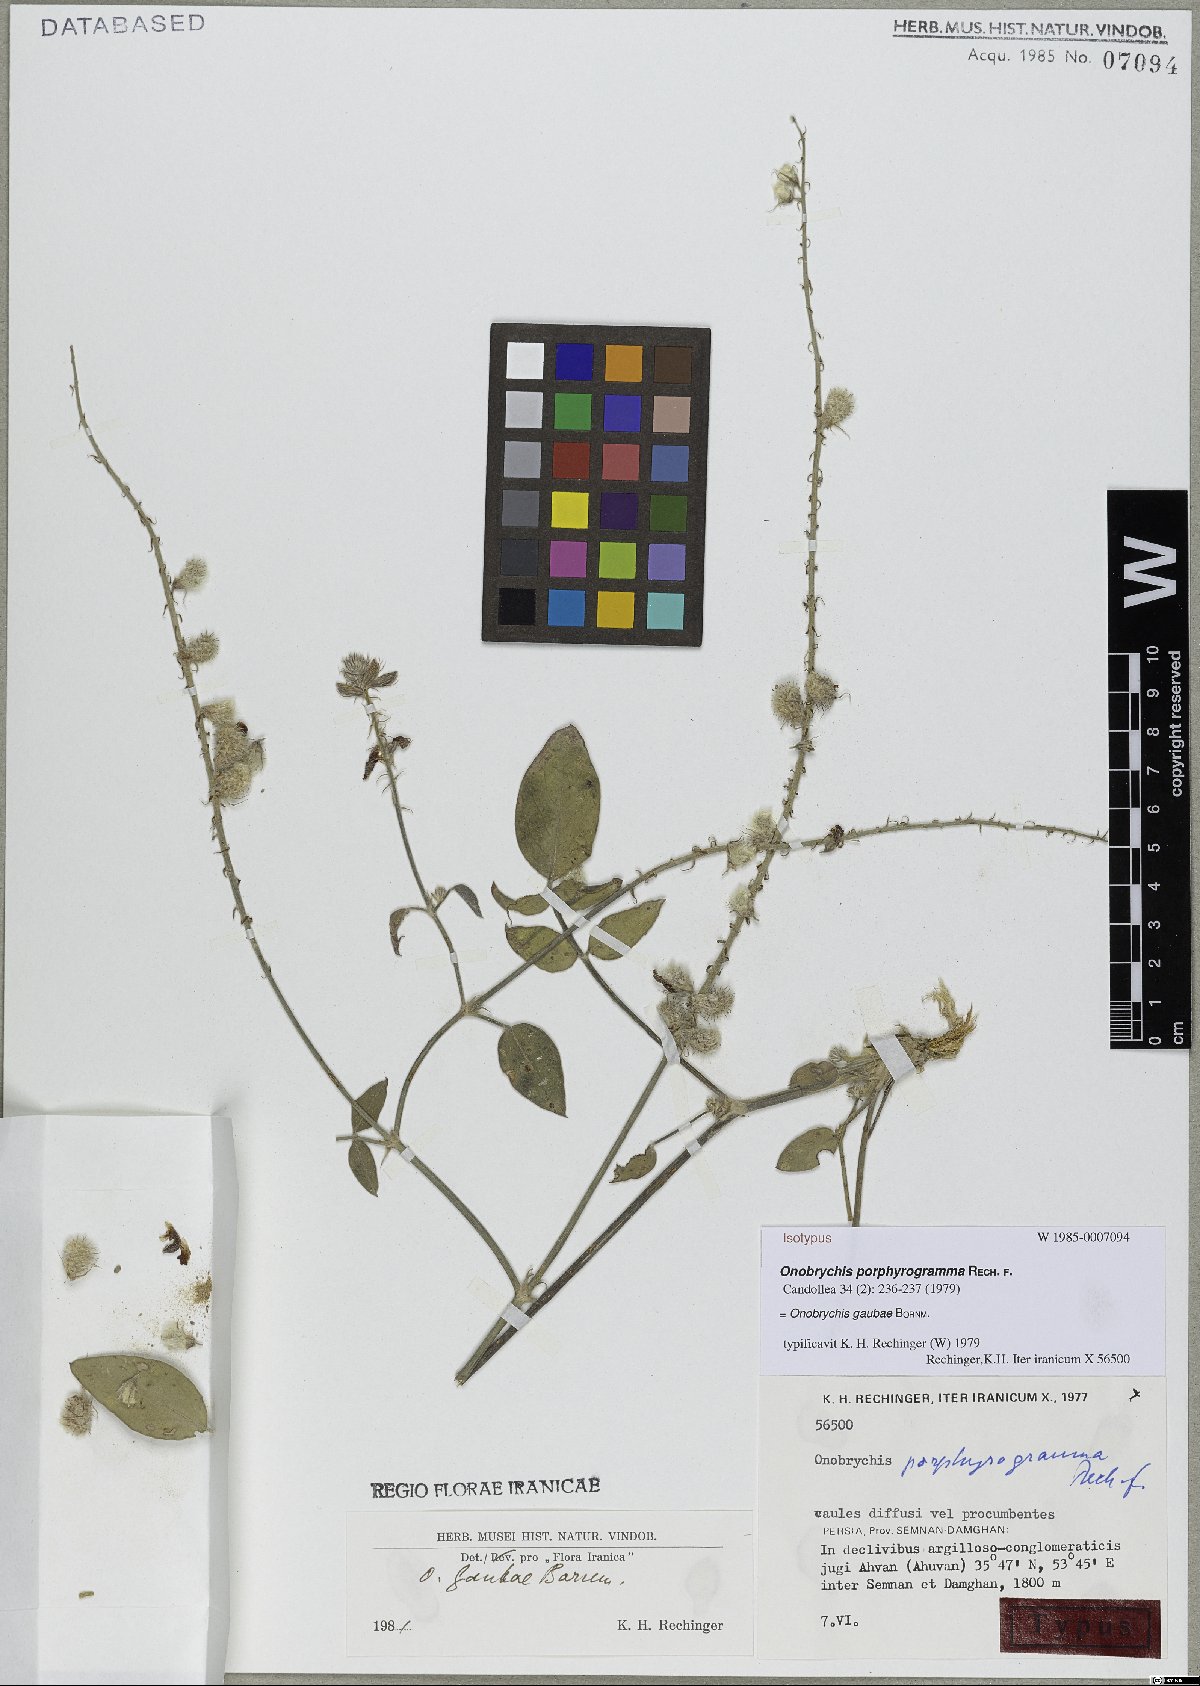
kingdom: Plantae
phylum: Tracheophyta
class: Magnoliopsida
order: Fabales
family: Fabaceae
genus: Onobrychis
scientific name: Onobrychis gaubae
